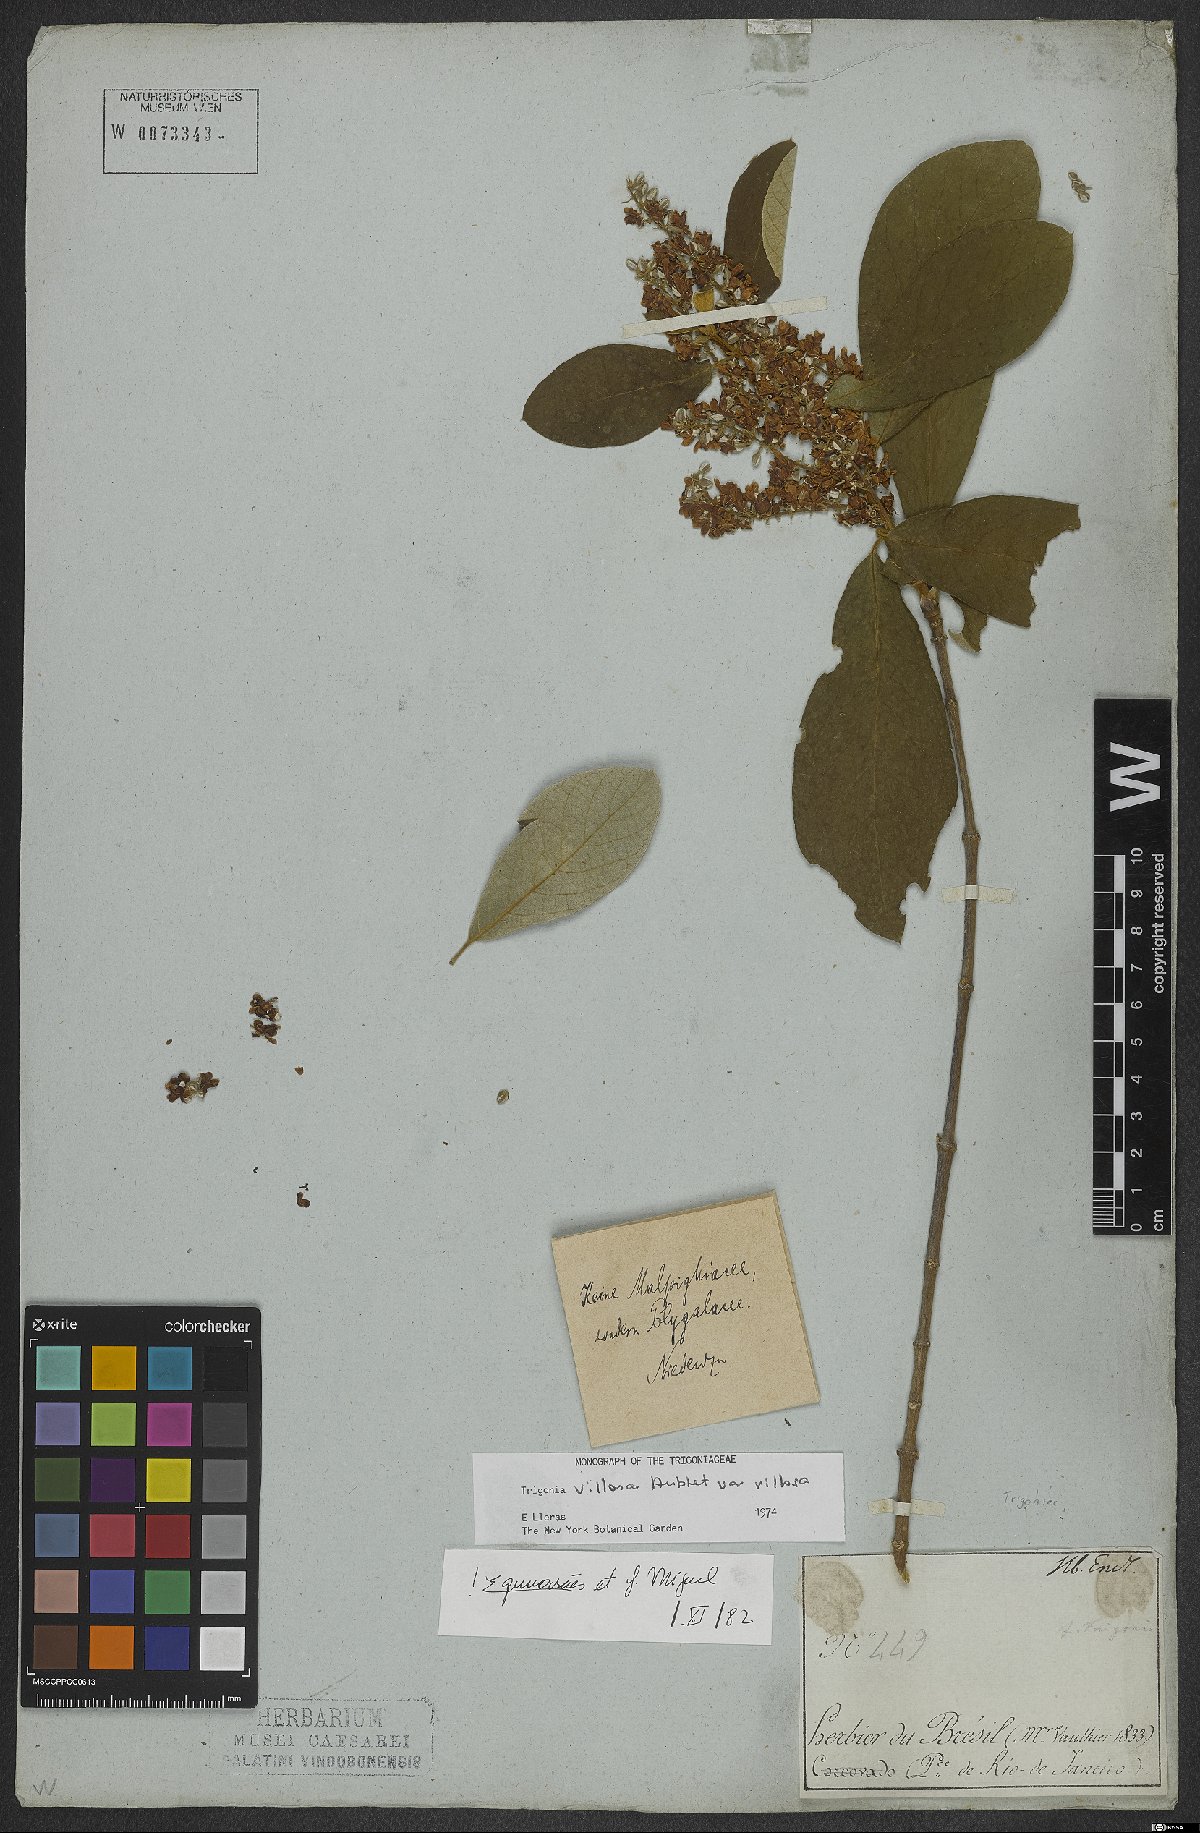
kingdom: Plantae
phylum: Tracheophyta
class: Magnoliopsida
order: Malpighiales
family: Trigoniaceae
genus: Trigonia
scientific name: Trigonia villosa
